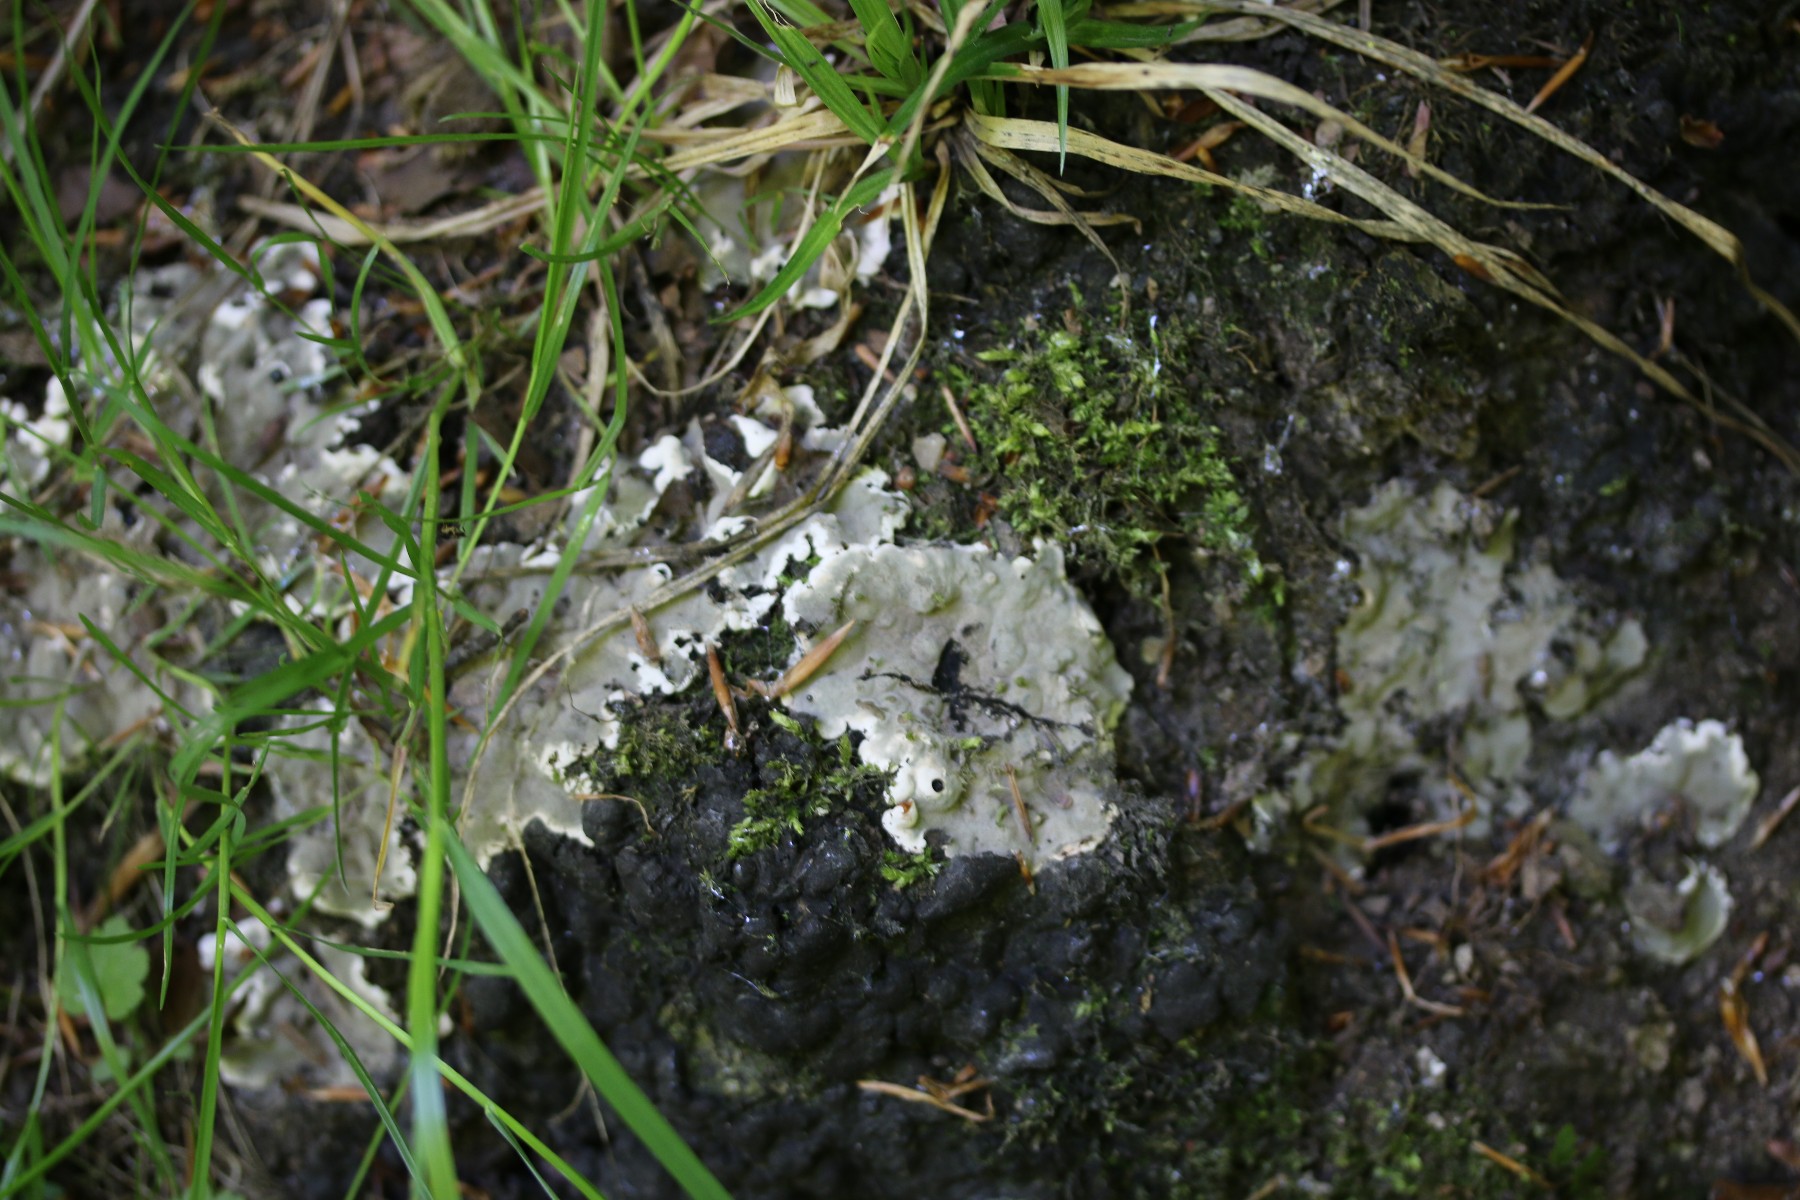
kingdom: Fungi
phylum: Ascomycota
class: Sordariomycetes
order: Xylariales
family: Xylariaceae
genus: Kretzschmaria
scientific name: Kretzschmaria deusta
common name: stor kulsvamp
